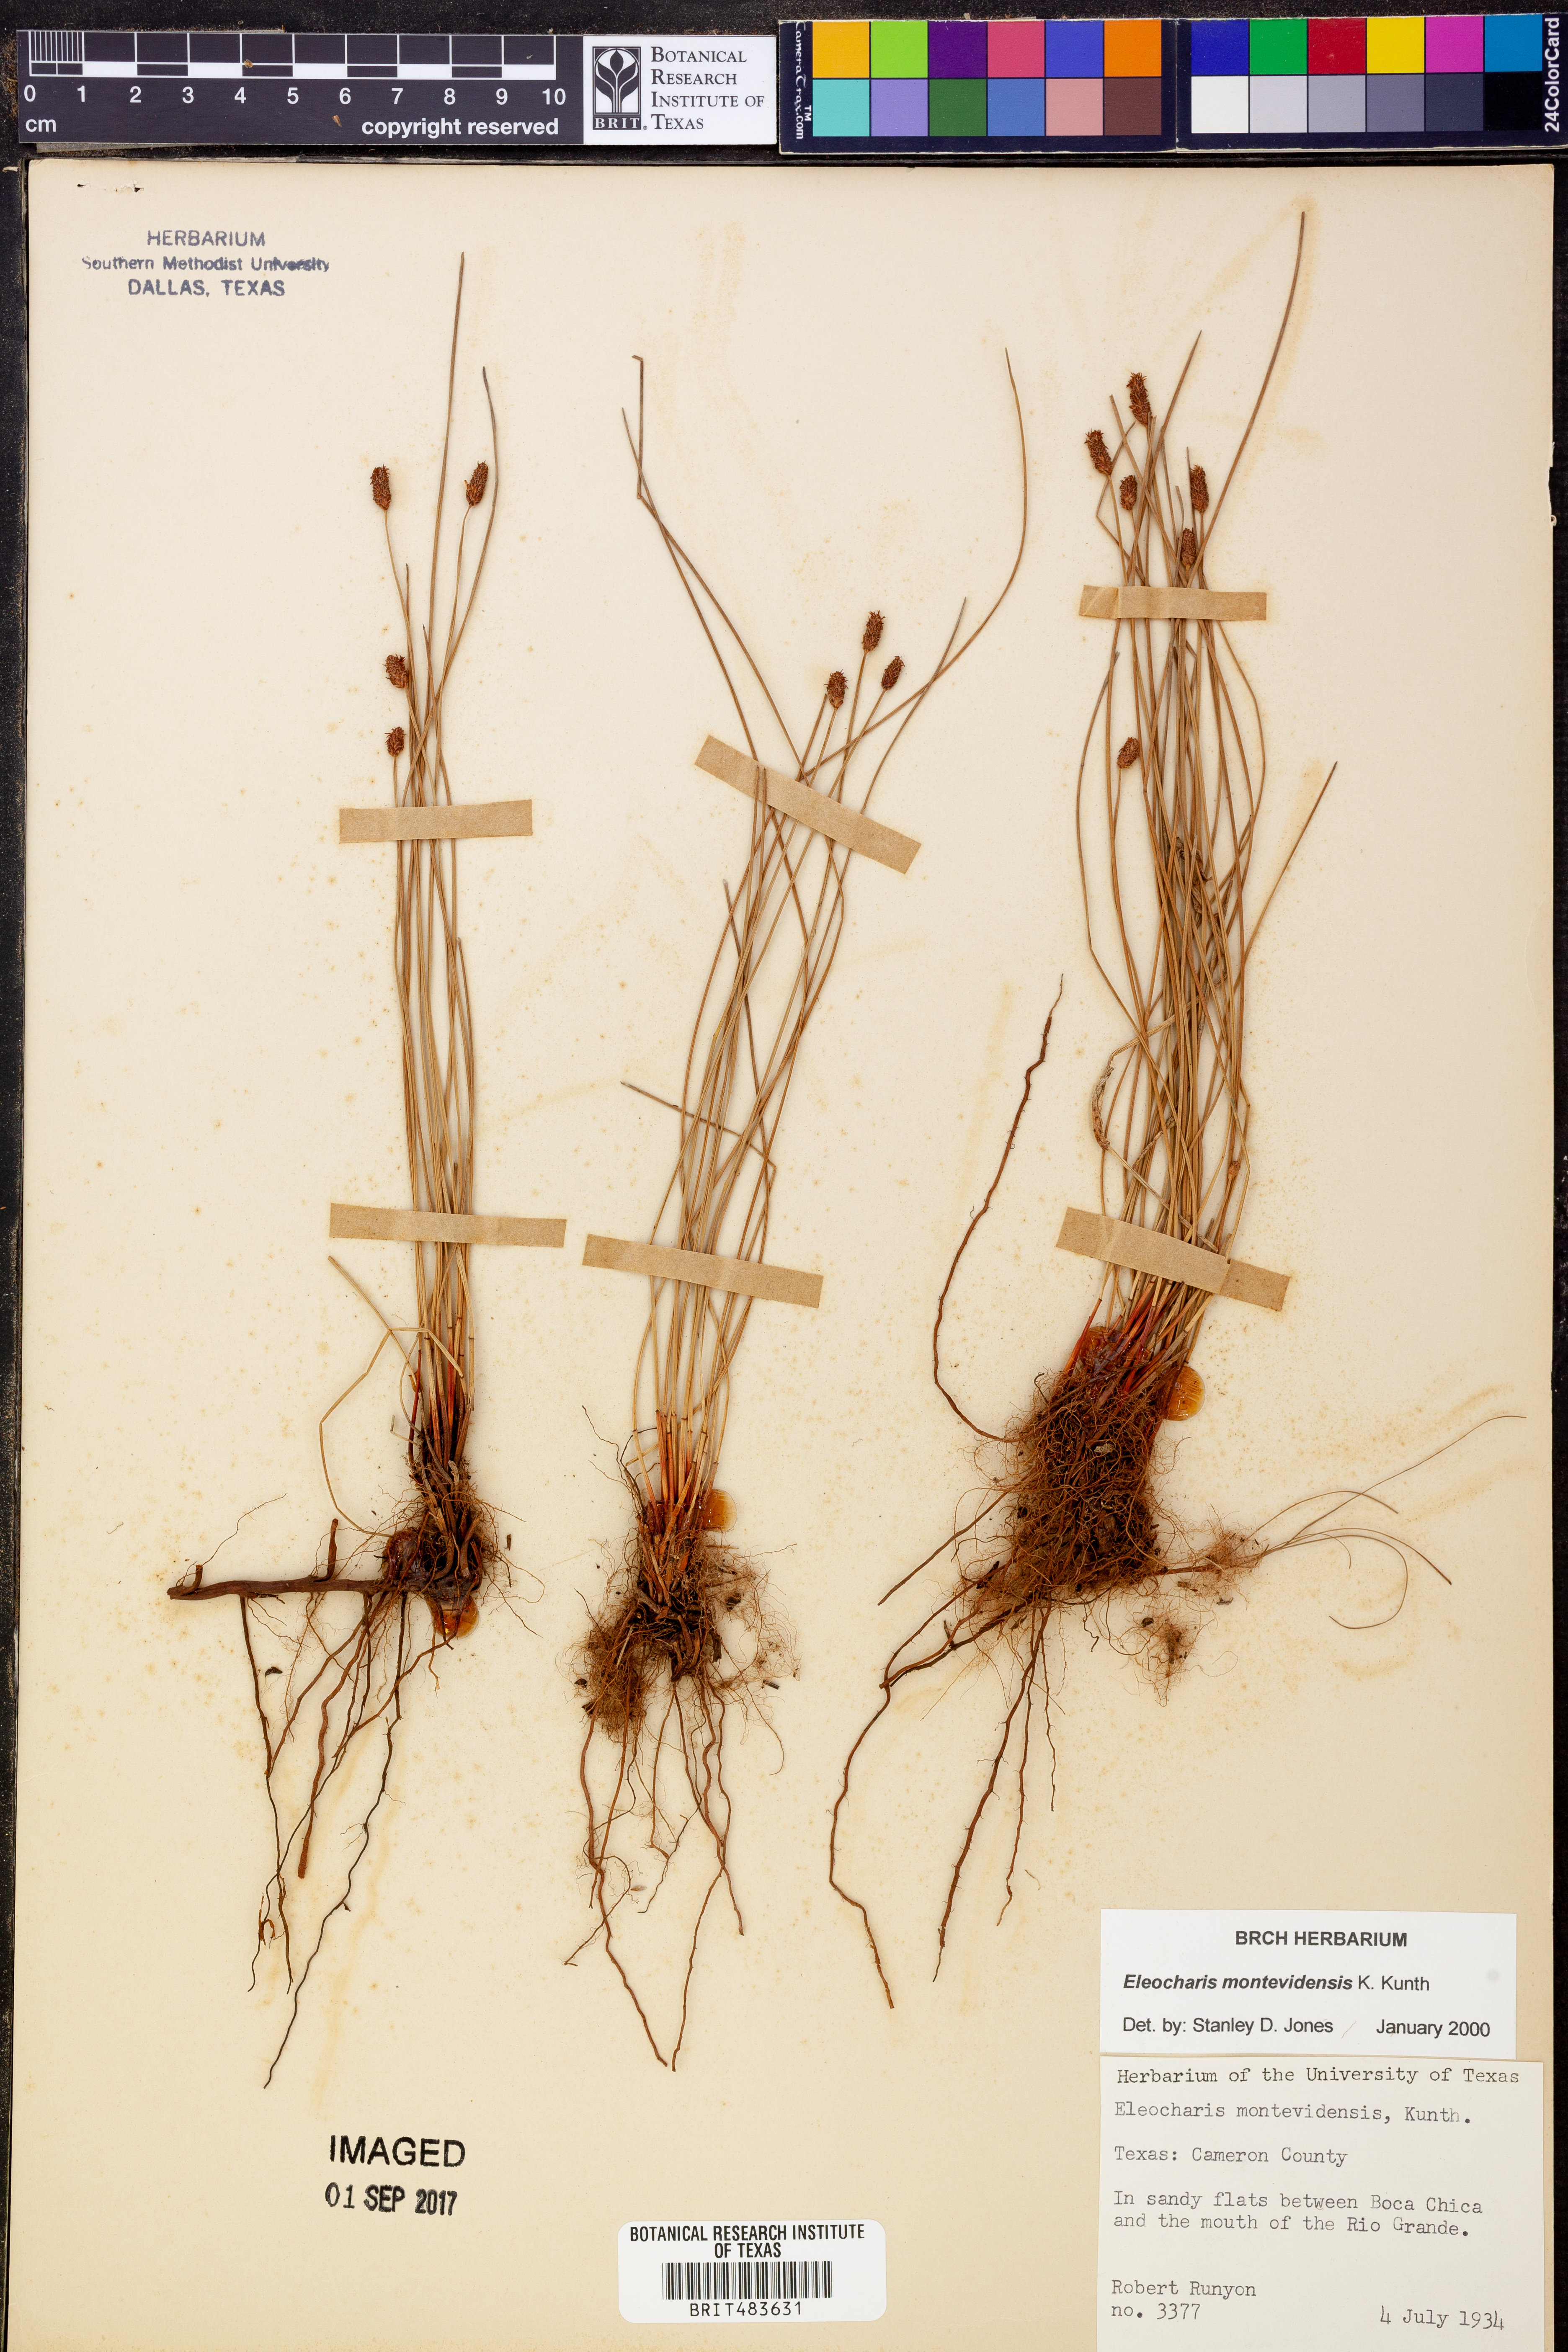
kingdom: Plantae
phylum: Tracheophyta
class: Liliopsida
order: Poales
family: Cyperaceae
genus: Eleocharis
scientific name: Eleocharis montevidensis
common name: Sand spike-rush
